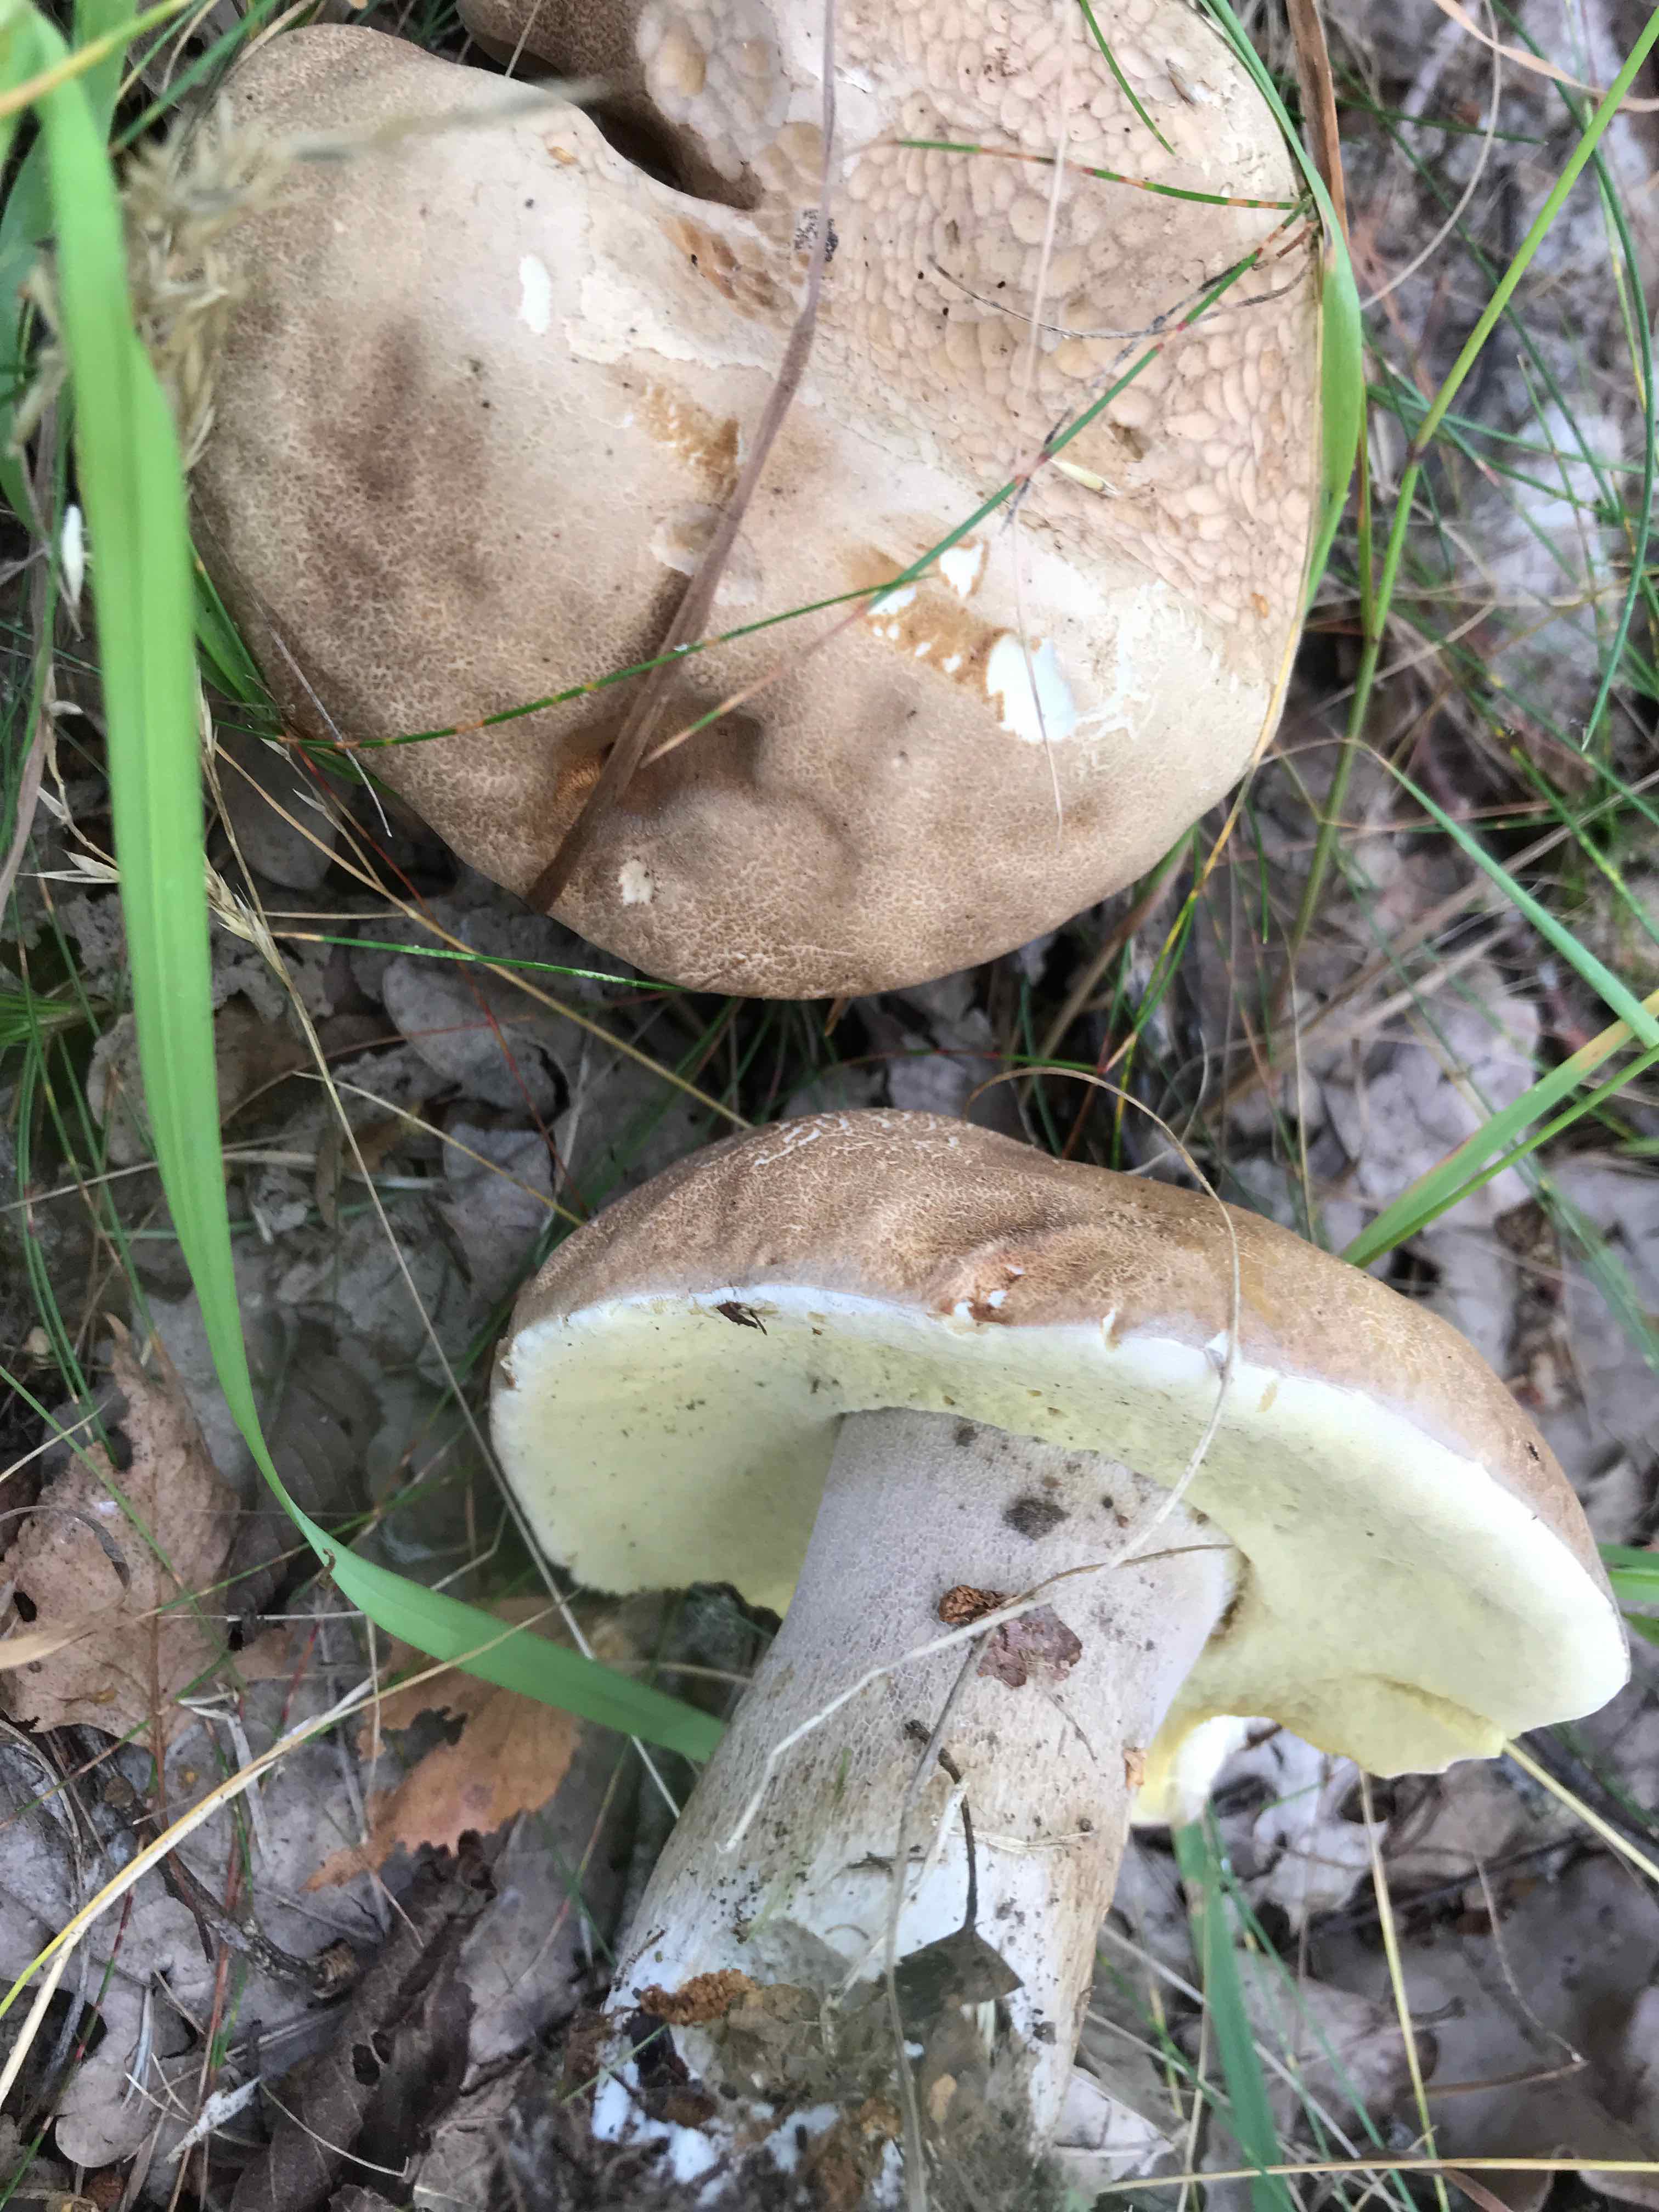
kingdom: Fungi
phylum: Basidiomycota
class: Agaricomycetes
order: Boletales
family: Boletaceae
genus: Boletus
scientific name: Boletus reticulatus
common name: sommer-rørhat
